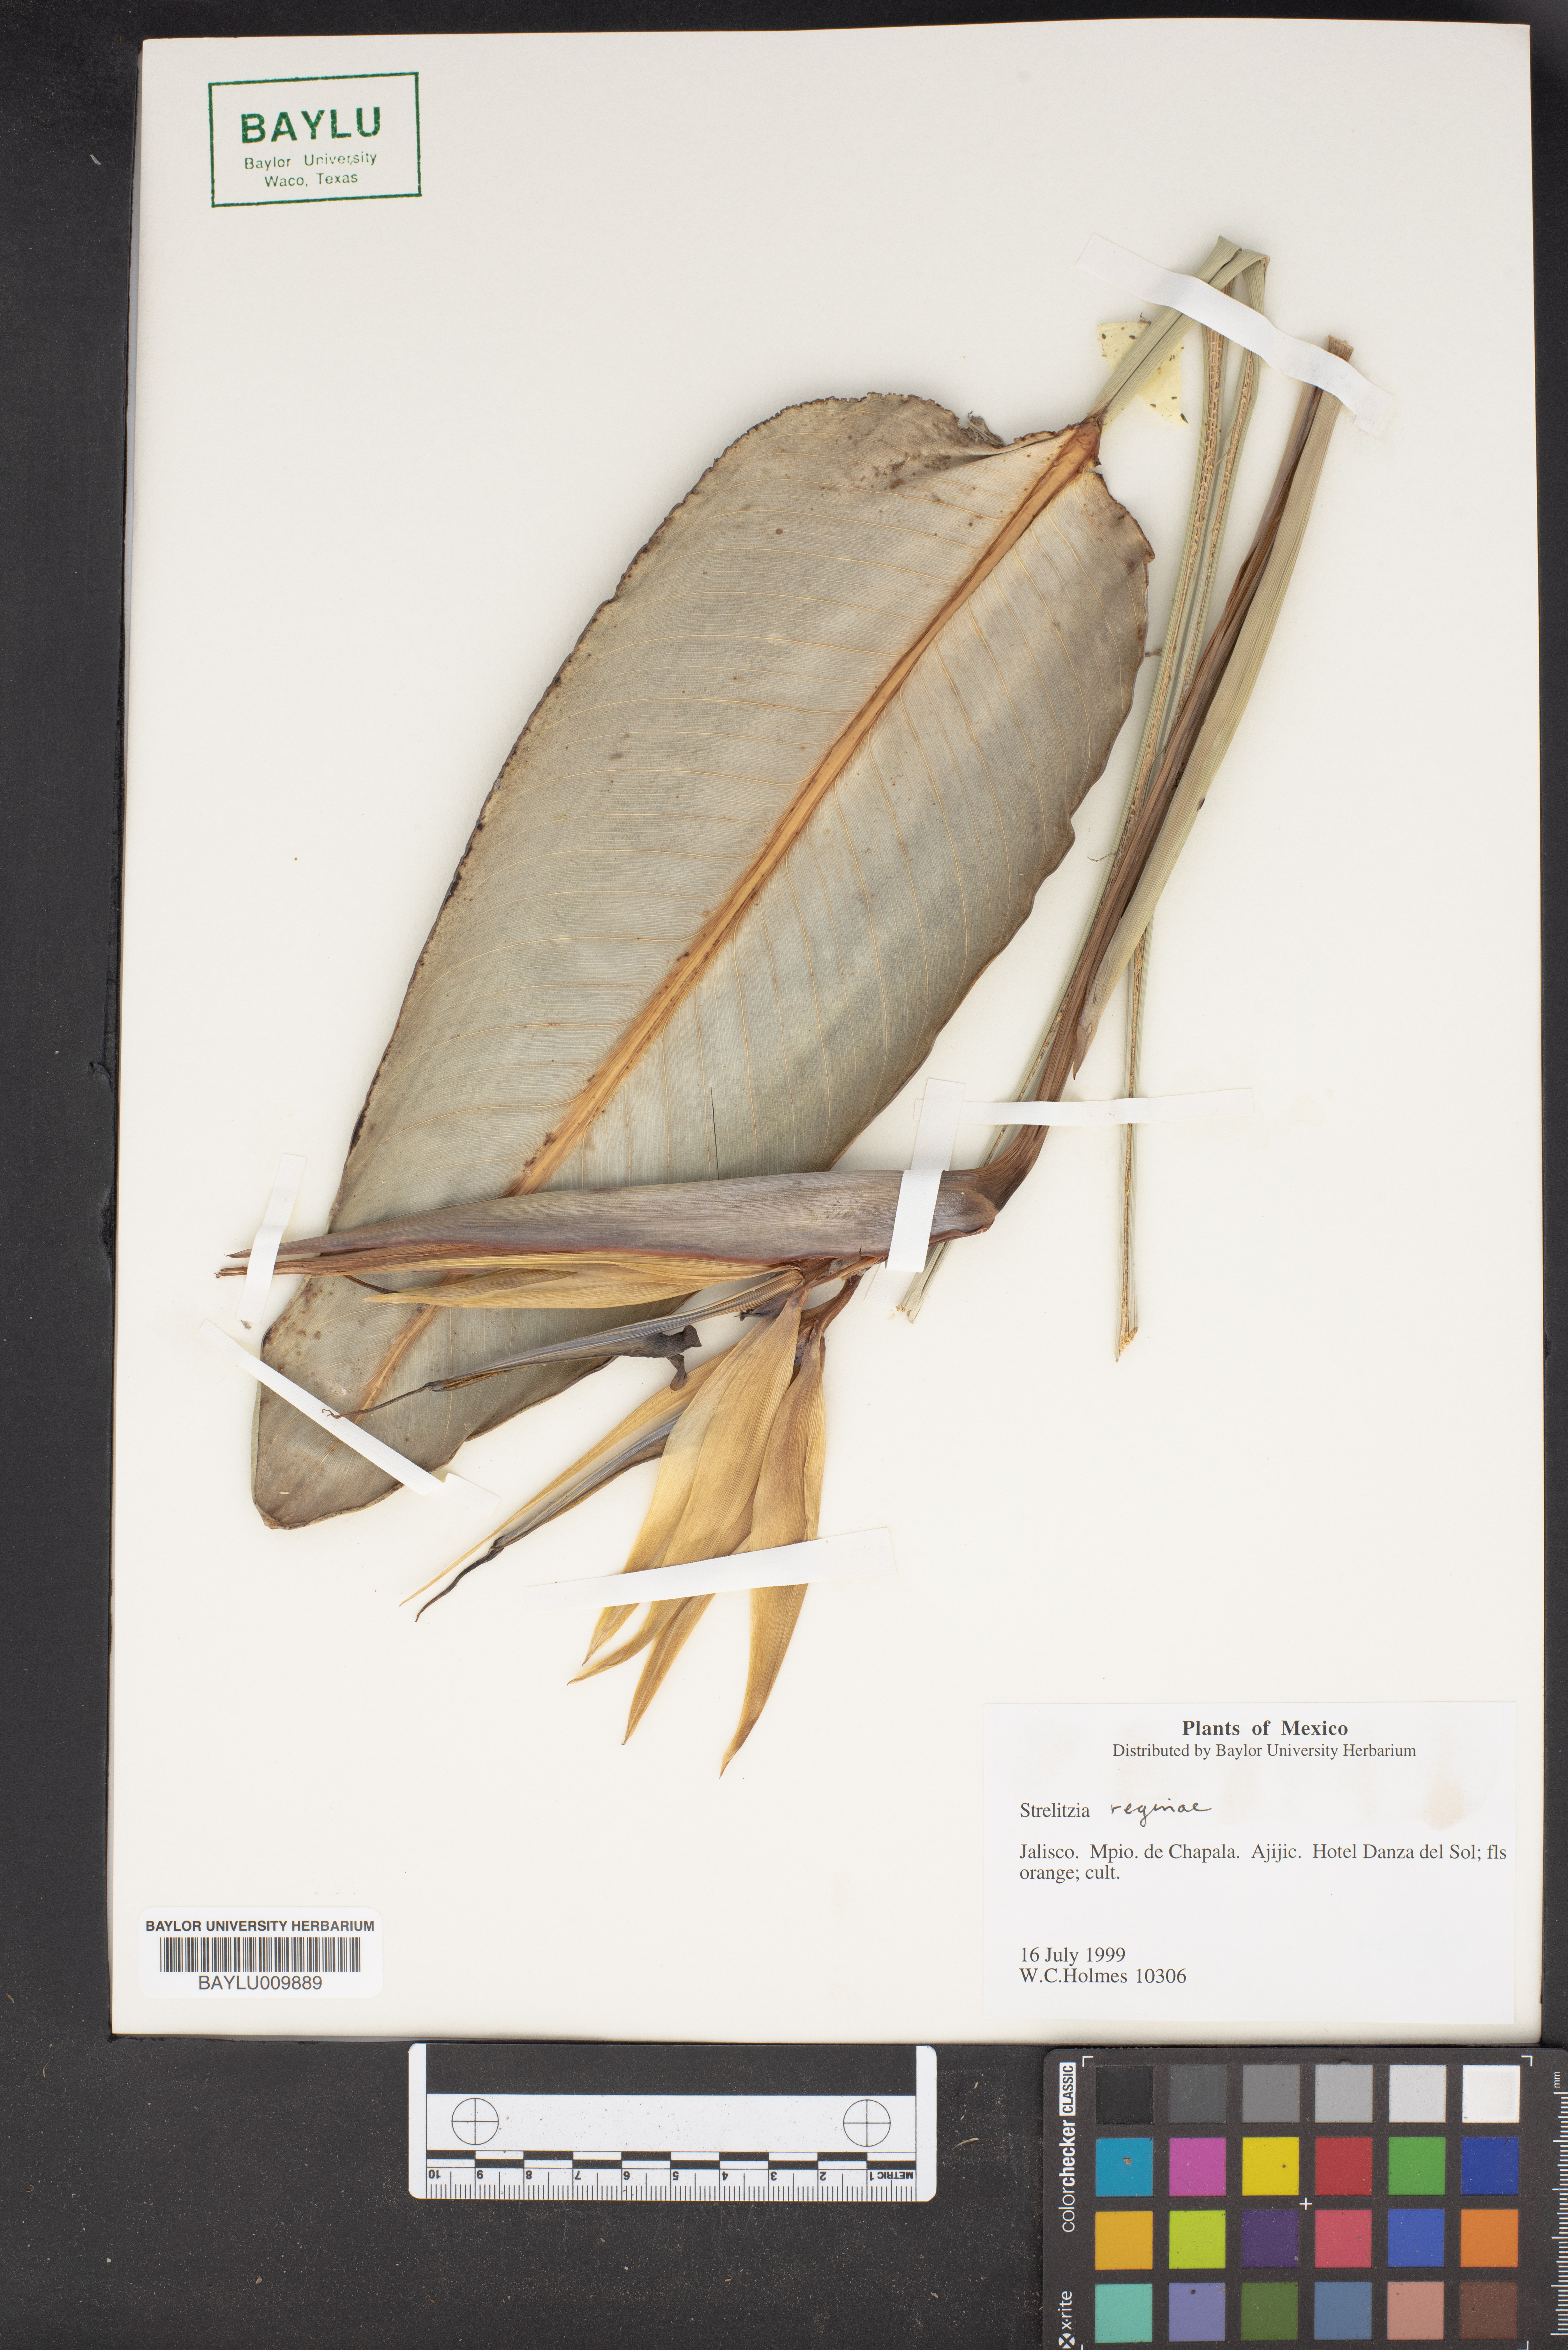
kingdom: Plantae
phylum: Tracheophyta
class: Liliopsida
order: Zingiberales
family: Strelitziaceae
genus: Strelitzia
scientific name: Strelitzia reginae
